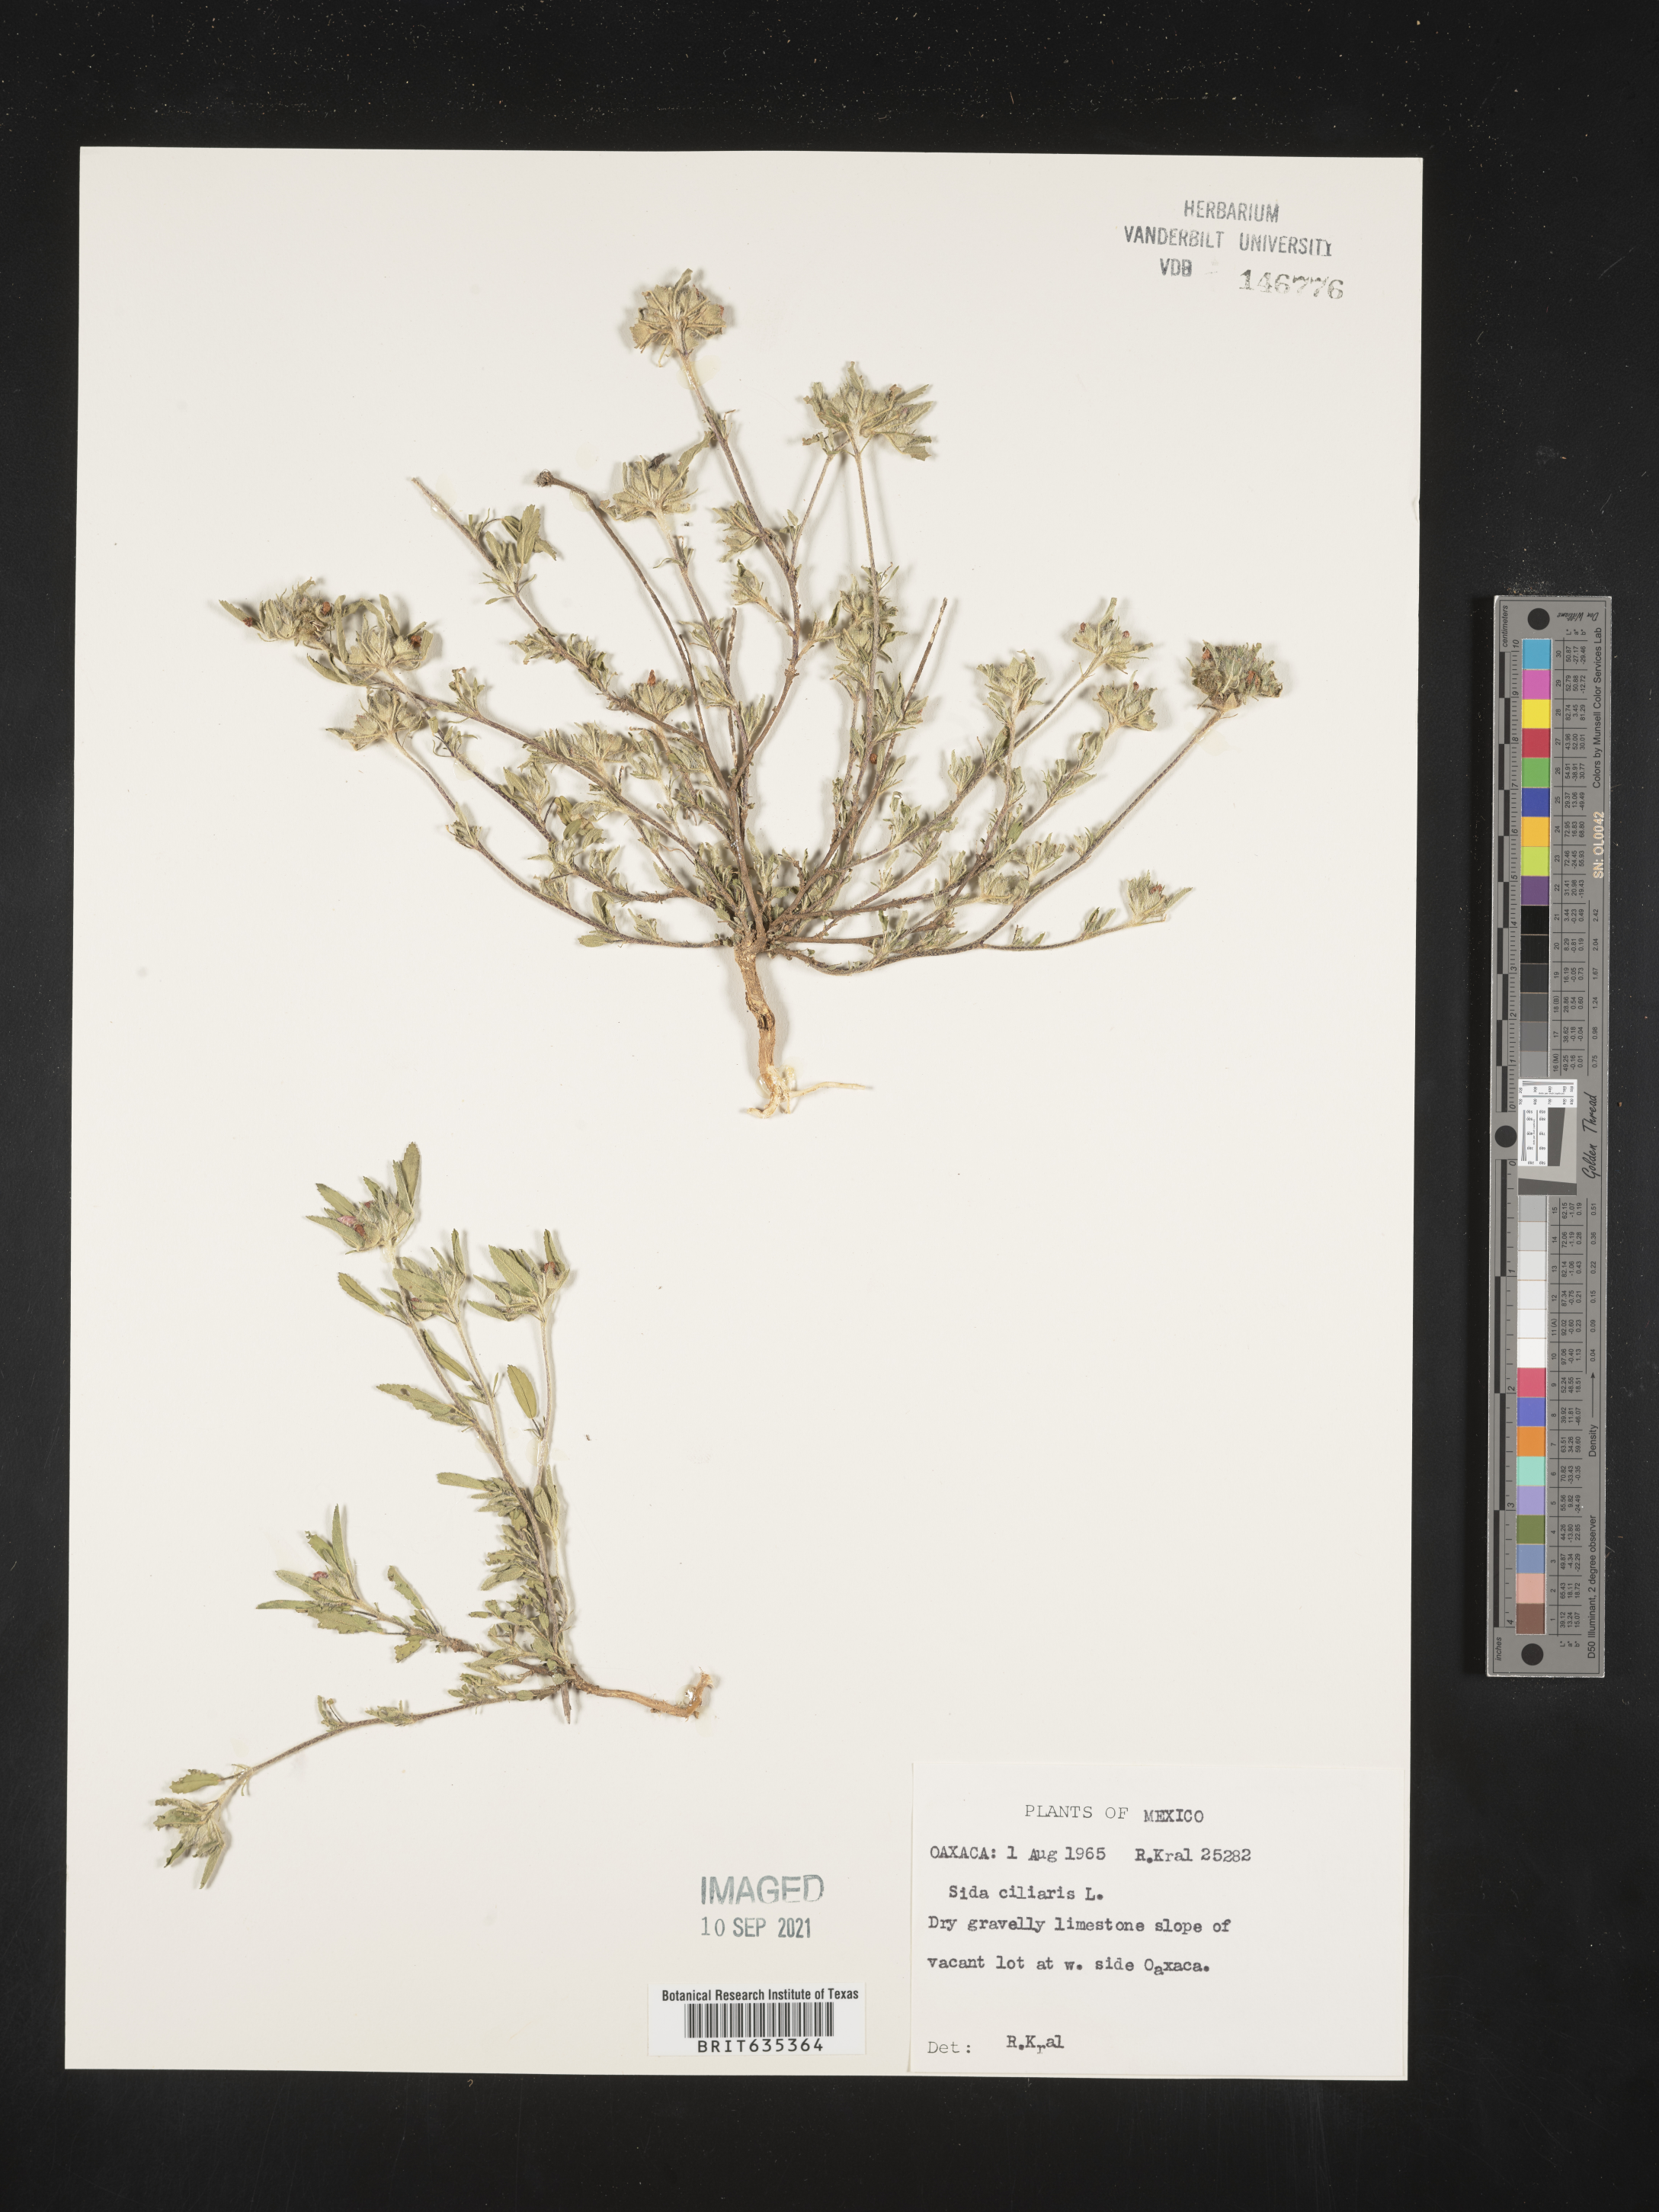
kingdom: Plantae
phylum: Tracheophyta
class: Magnoliopsida
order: Malvales
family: Malvaceae
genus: Sida
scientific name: Sida
